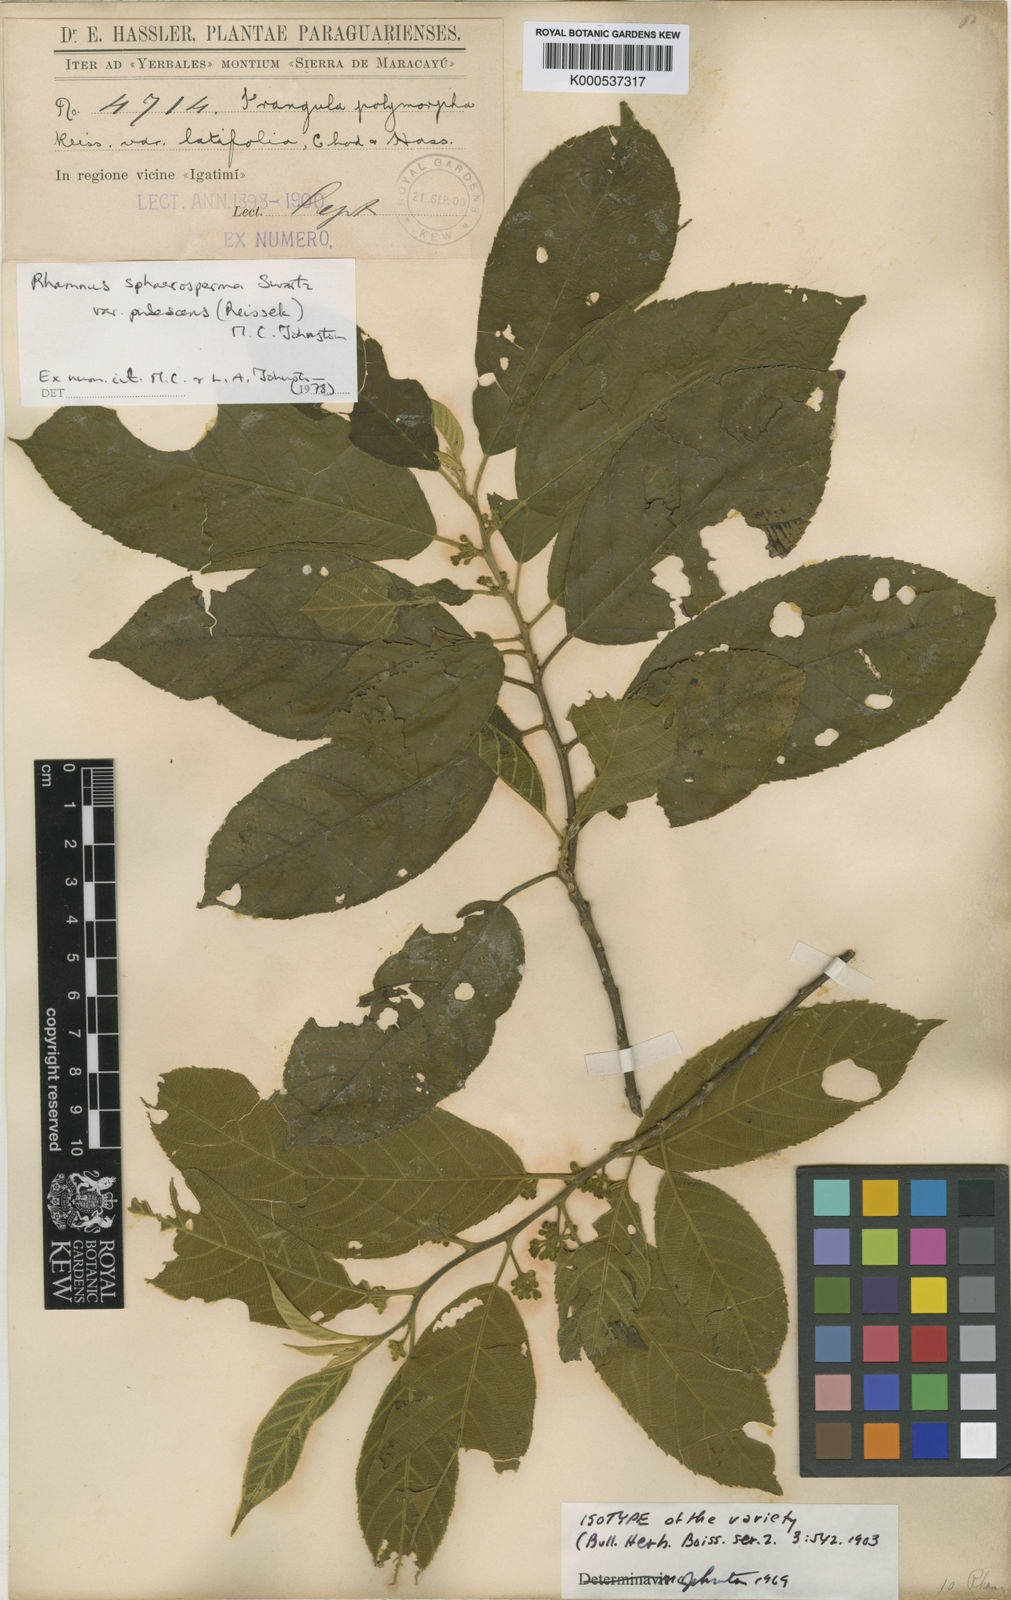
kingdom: Plantae
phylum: Tracheophyta
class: Magnoliopsida
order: Rosales
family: Rhamnaceae
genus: Frangula
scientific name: Frangula
